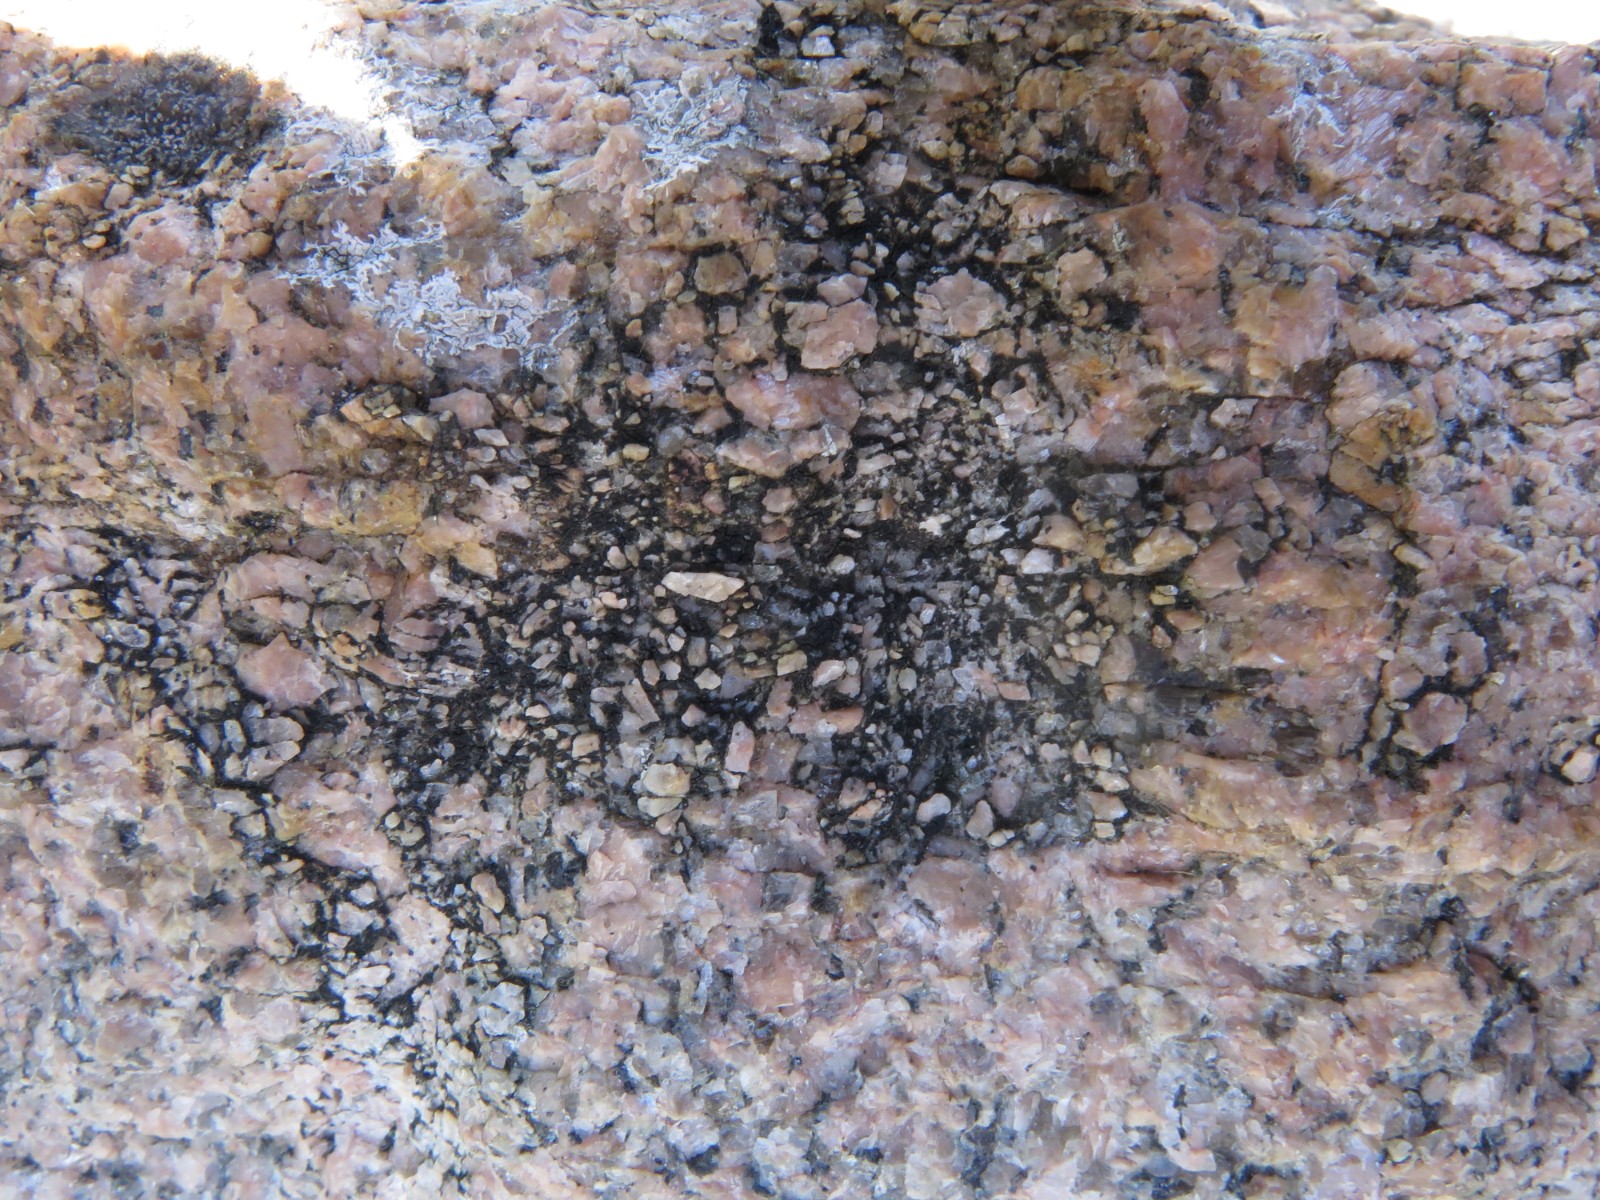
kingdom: Fungi
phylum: Ascomycota
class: Lecanoromycetes
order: Acarosporales
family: Acarosporaceae
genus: Acarospora
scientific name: Acarospora privigna
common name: sort foldekantlav
